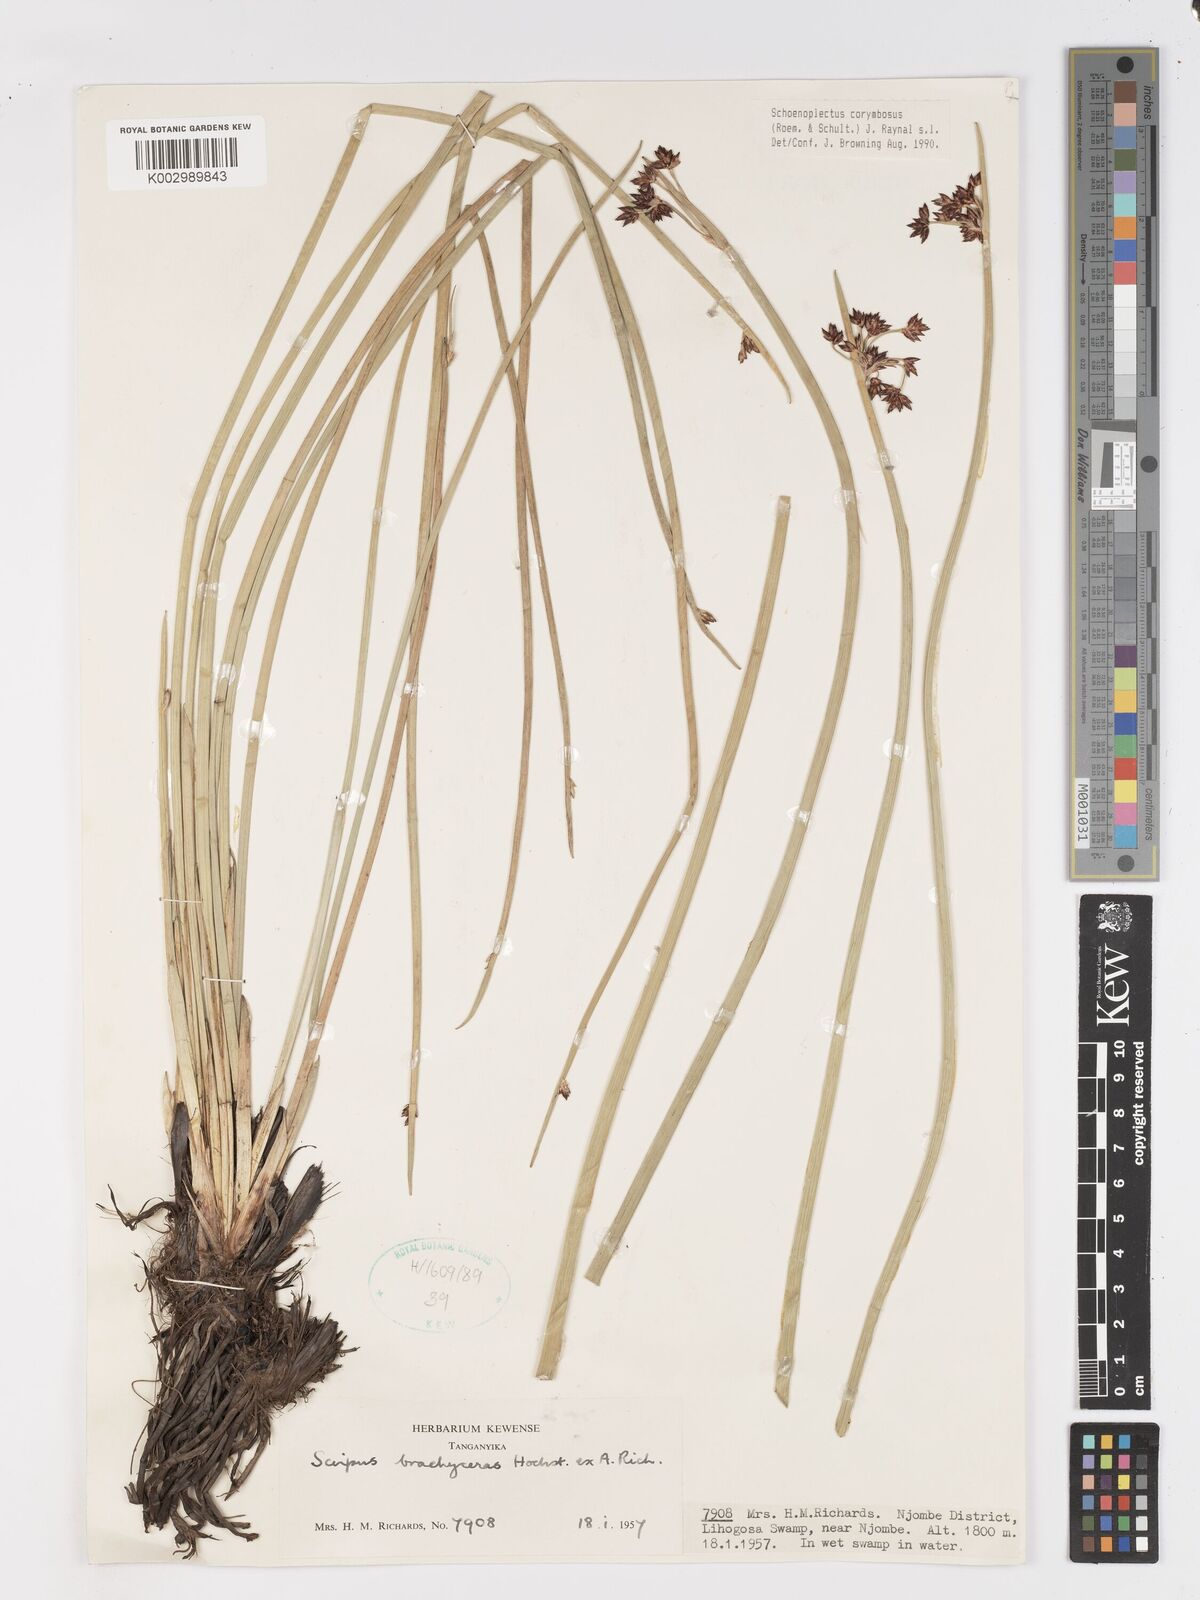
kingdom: Plantae
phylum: Tracheophyta
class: Liliopsida
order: Poales
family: Cyperaceae
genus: Schoenoplectiella
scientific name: Schoenoplectiella corymbosa
